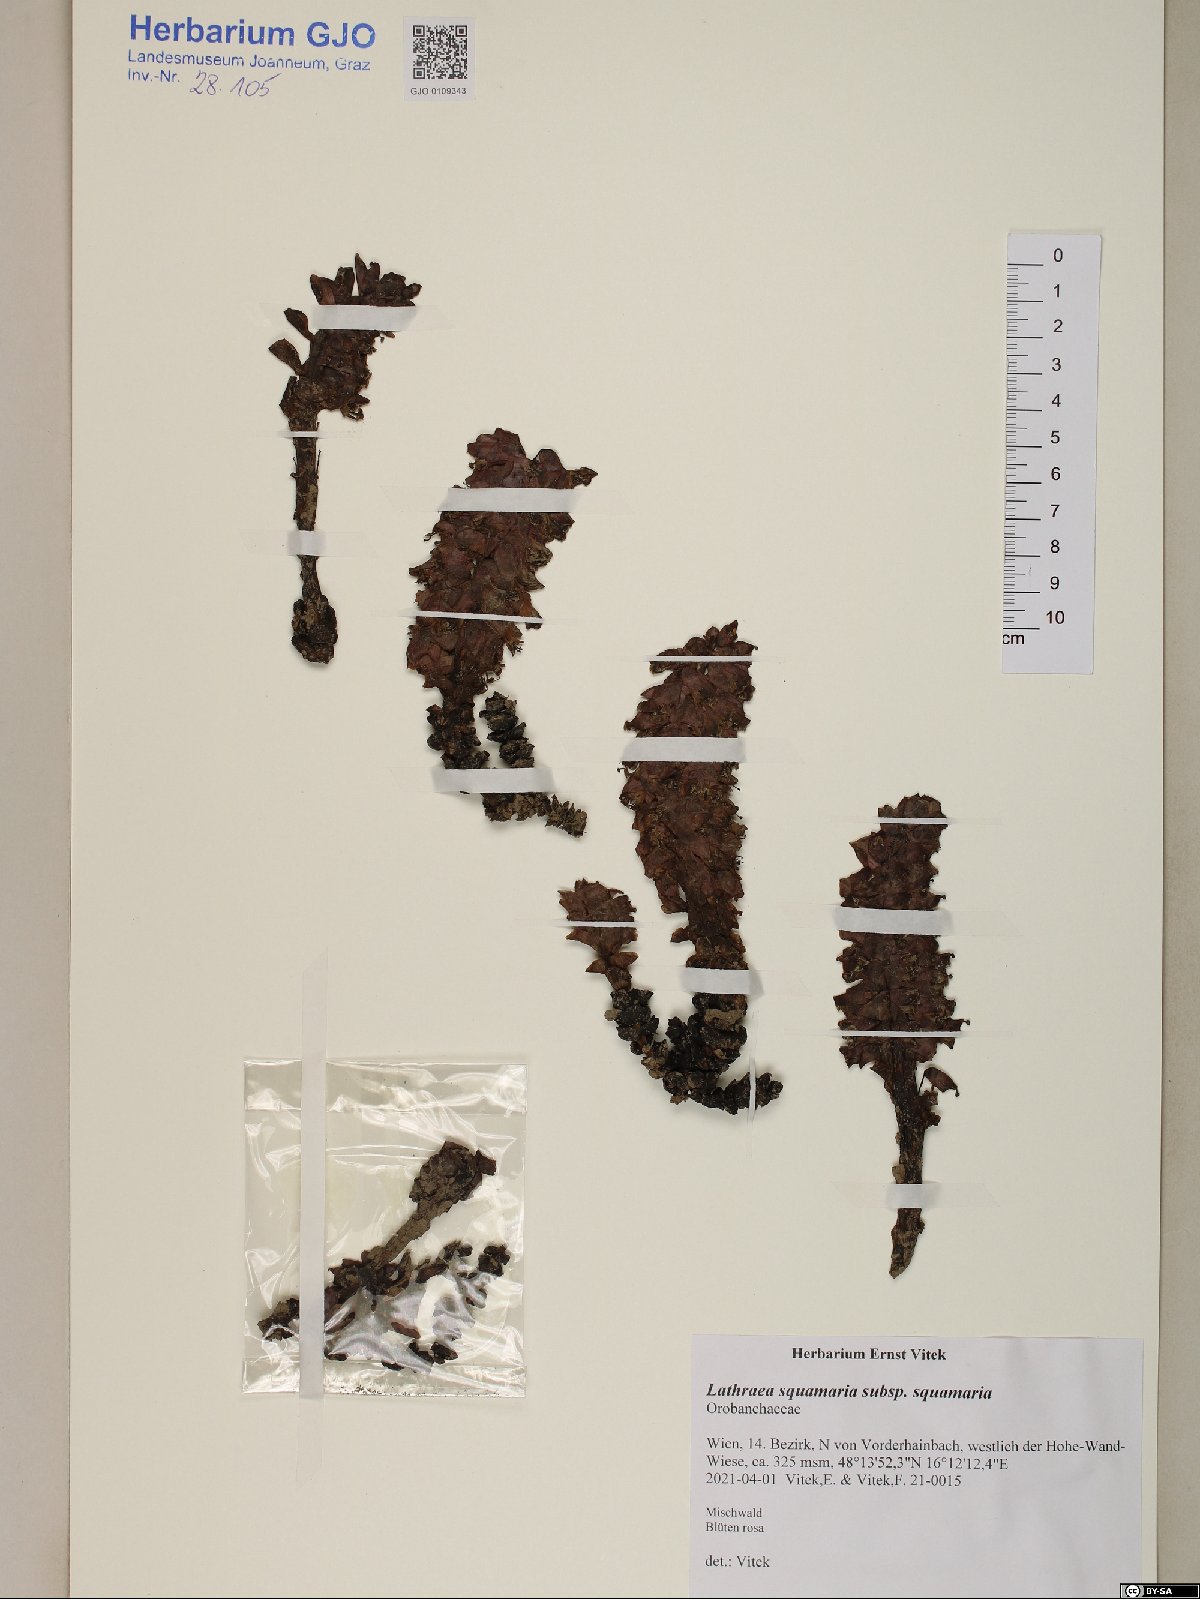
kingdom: Plantae
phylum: Tracheophyta
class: Magnoliopsida
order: Lamiales
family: Orobanchaceae
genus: Lathraea
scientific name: Lathraea squamaria
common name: Toothwort
